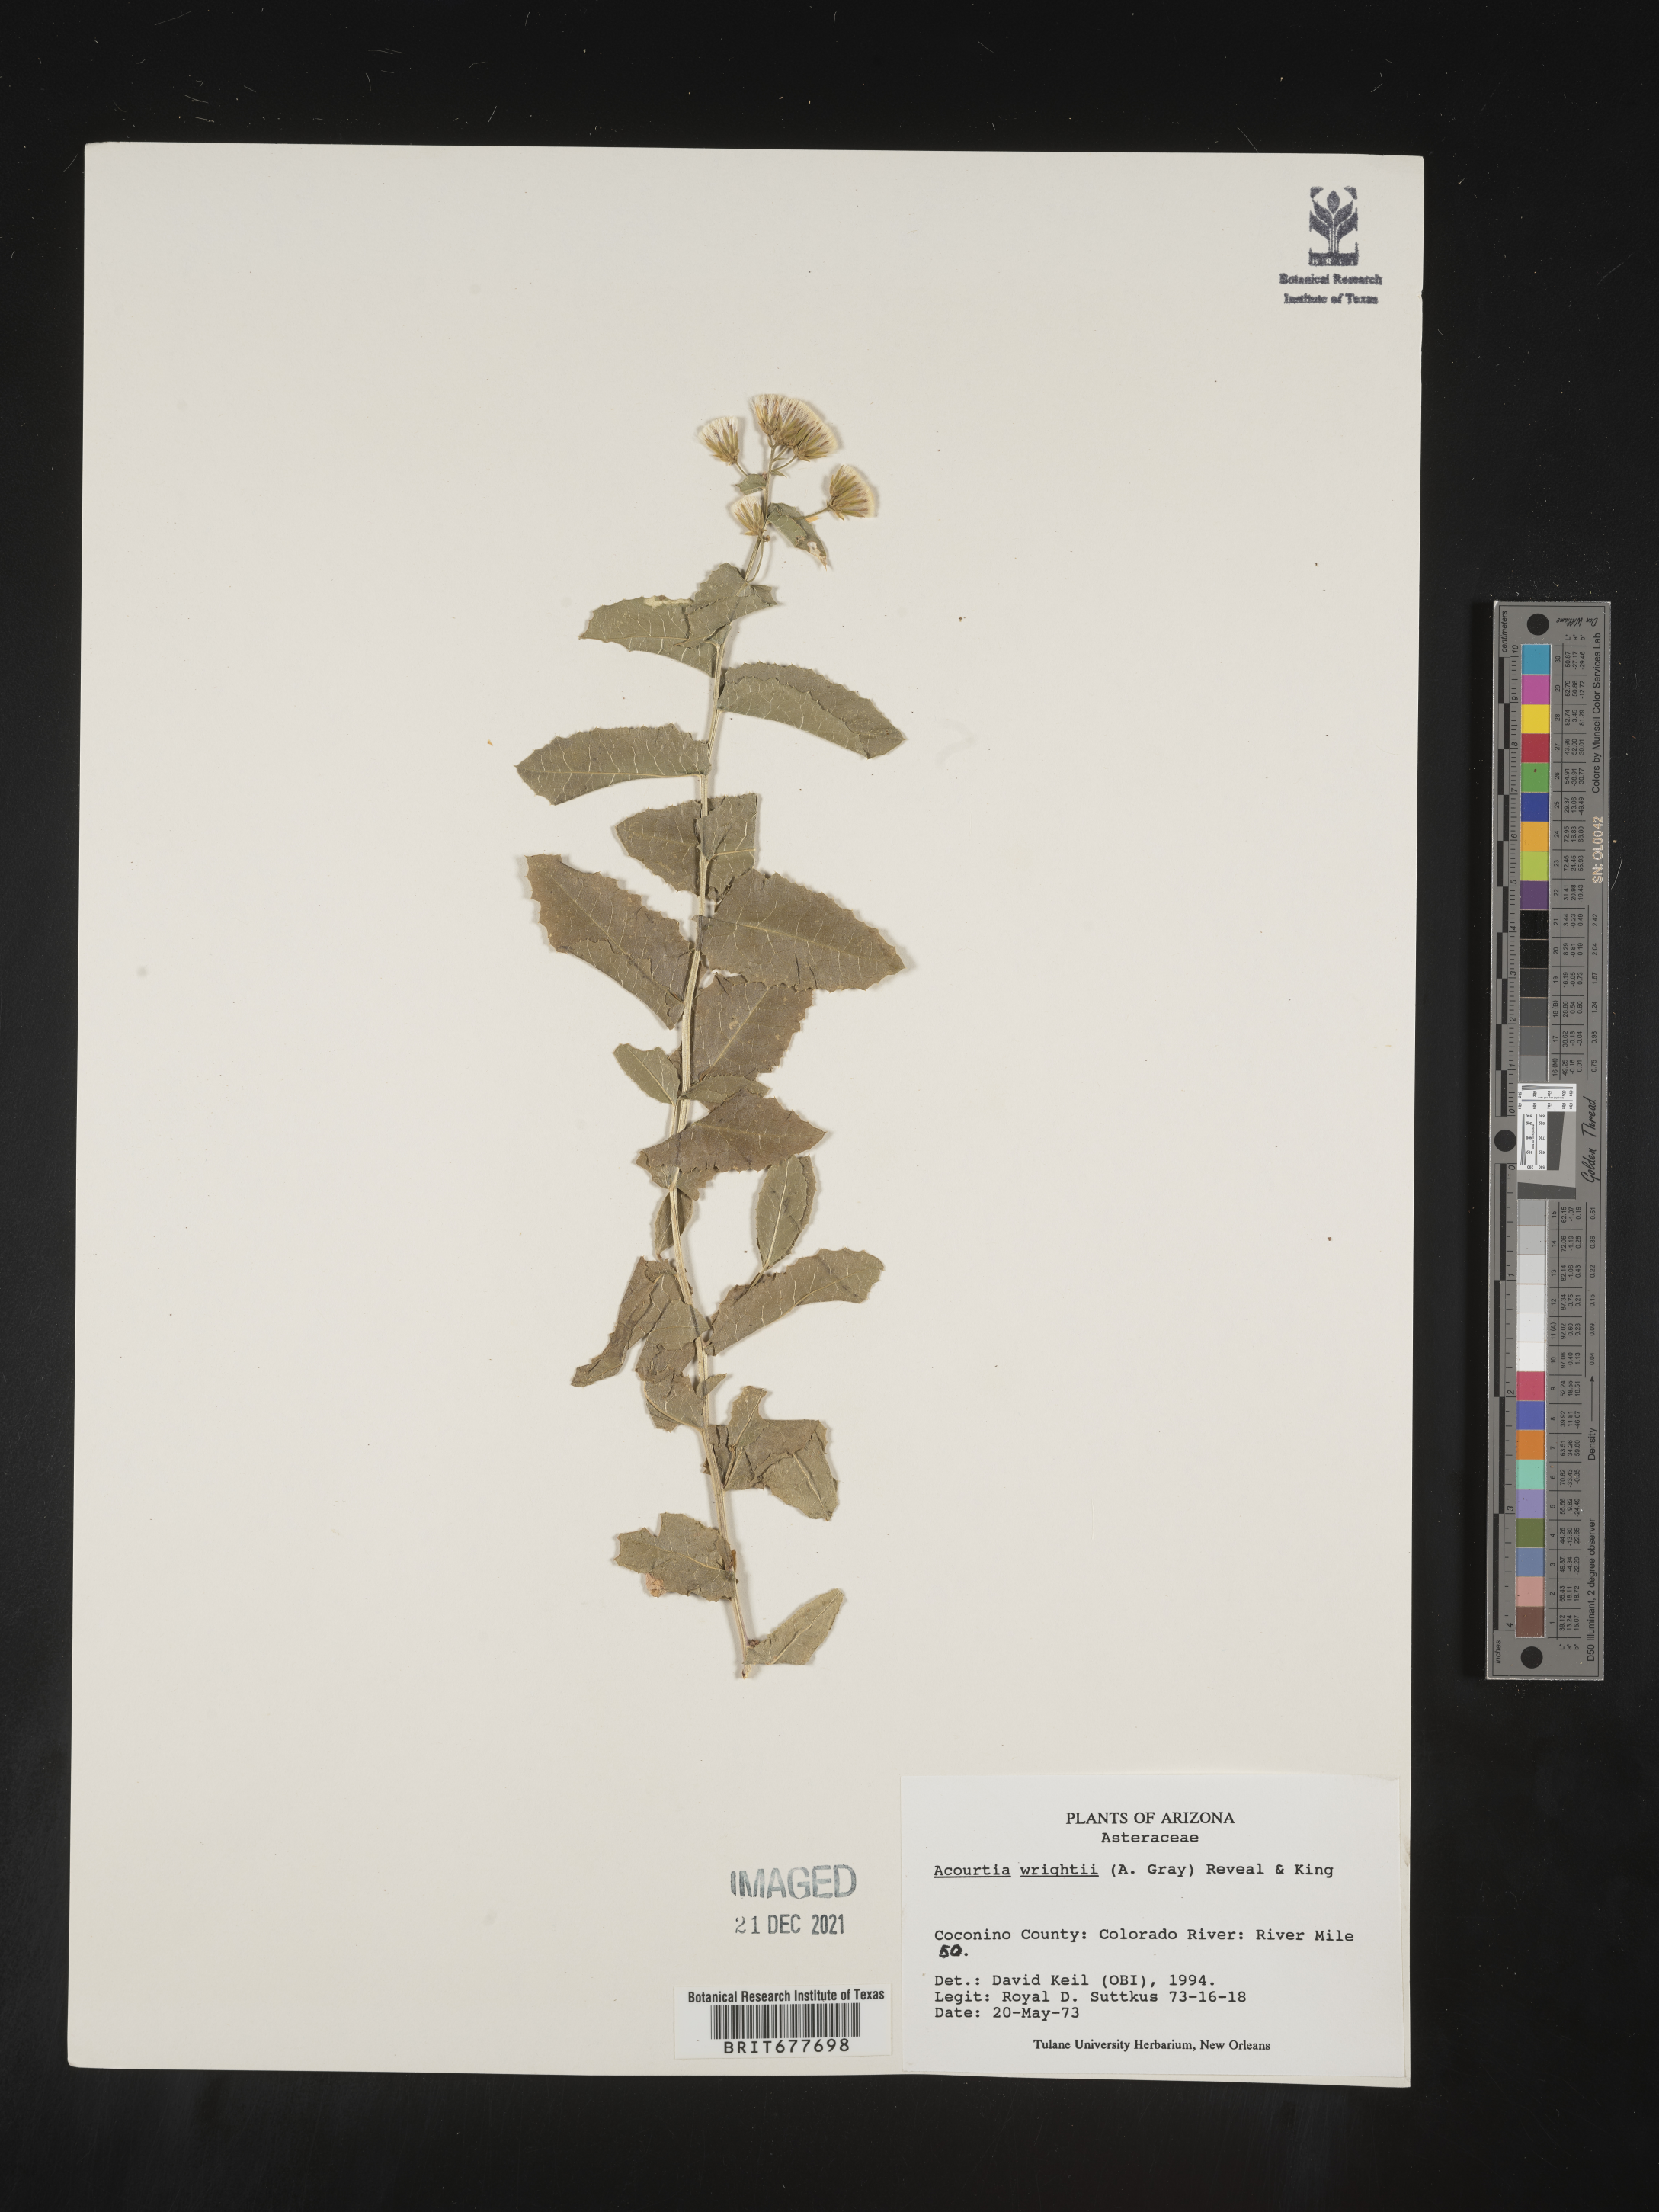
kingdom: Plantae
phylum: Tracheophyta
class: Magnoliopsida
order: Asterales
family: Asteraceae
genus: Perezia
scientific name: Perezia
